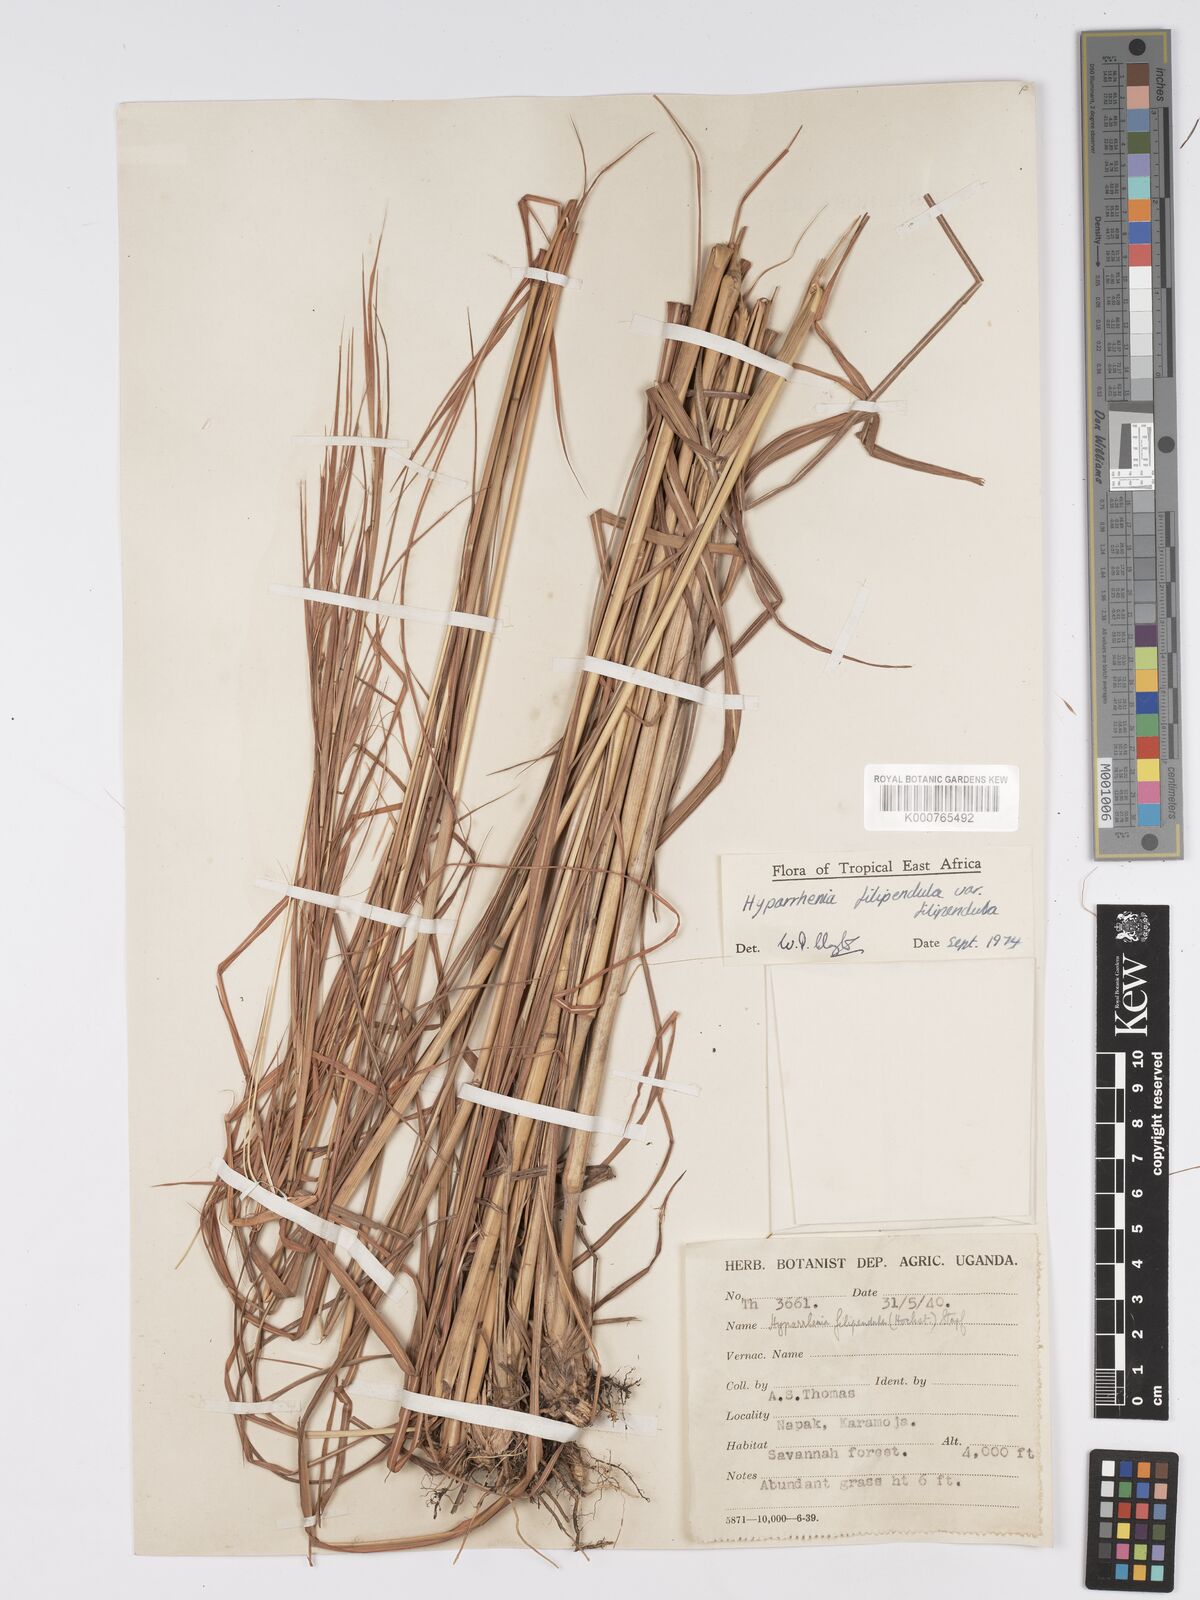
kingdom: Plantae
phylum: Tracheophyta
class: Liliopsida
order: Poales
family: Poaceae
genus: Hyparrhenia
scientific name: Hyparrhenia filipendula
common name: Tambookie grass
